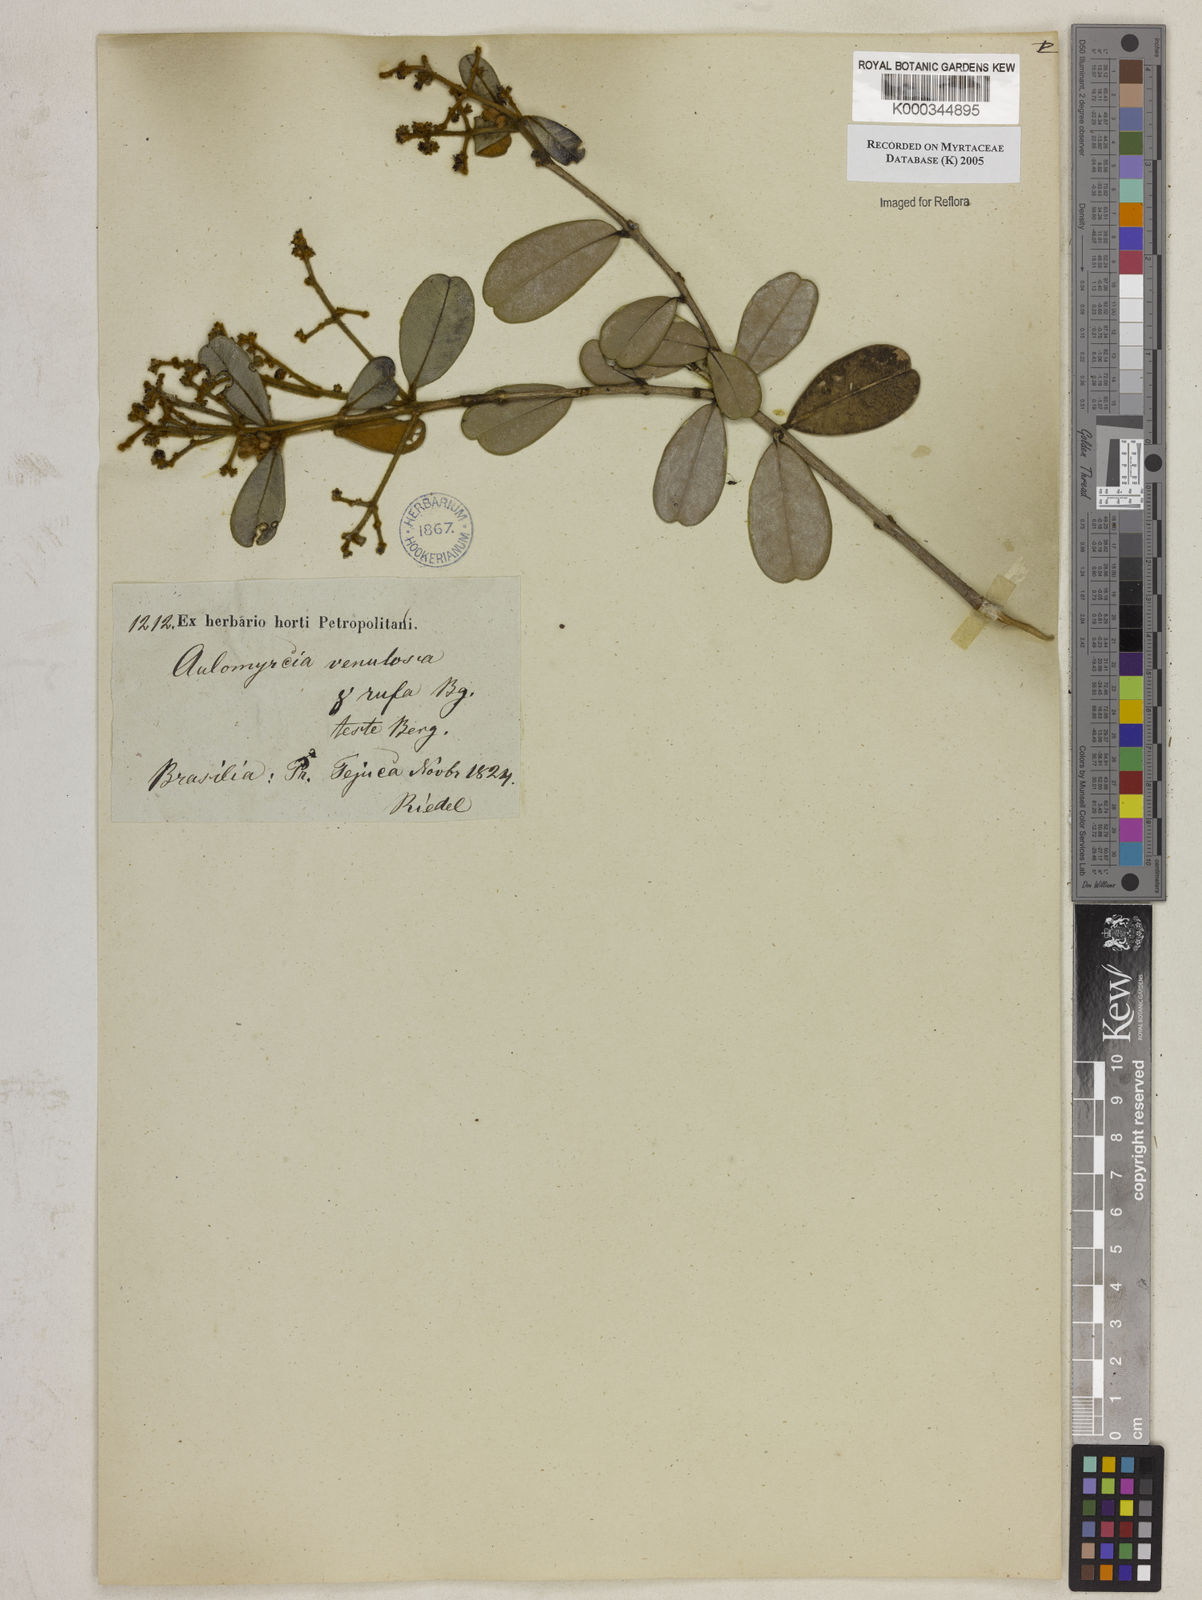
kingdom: Plantae
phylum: Tracheophyta
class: Magnoliopsida
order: Myrtales
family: Myrtaceae
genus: Myrcia
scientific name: Myrcia venulosa
